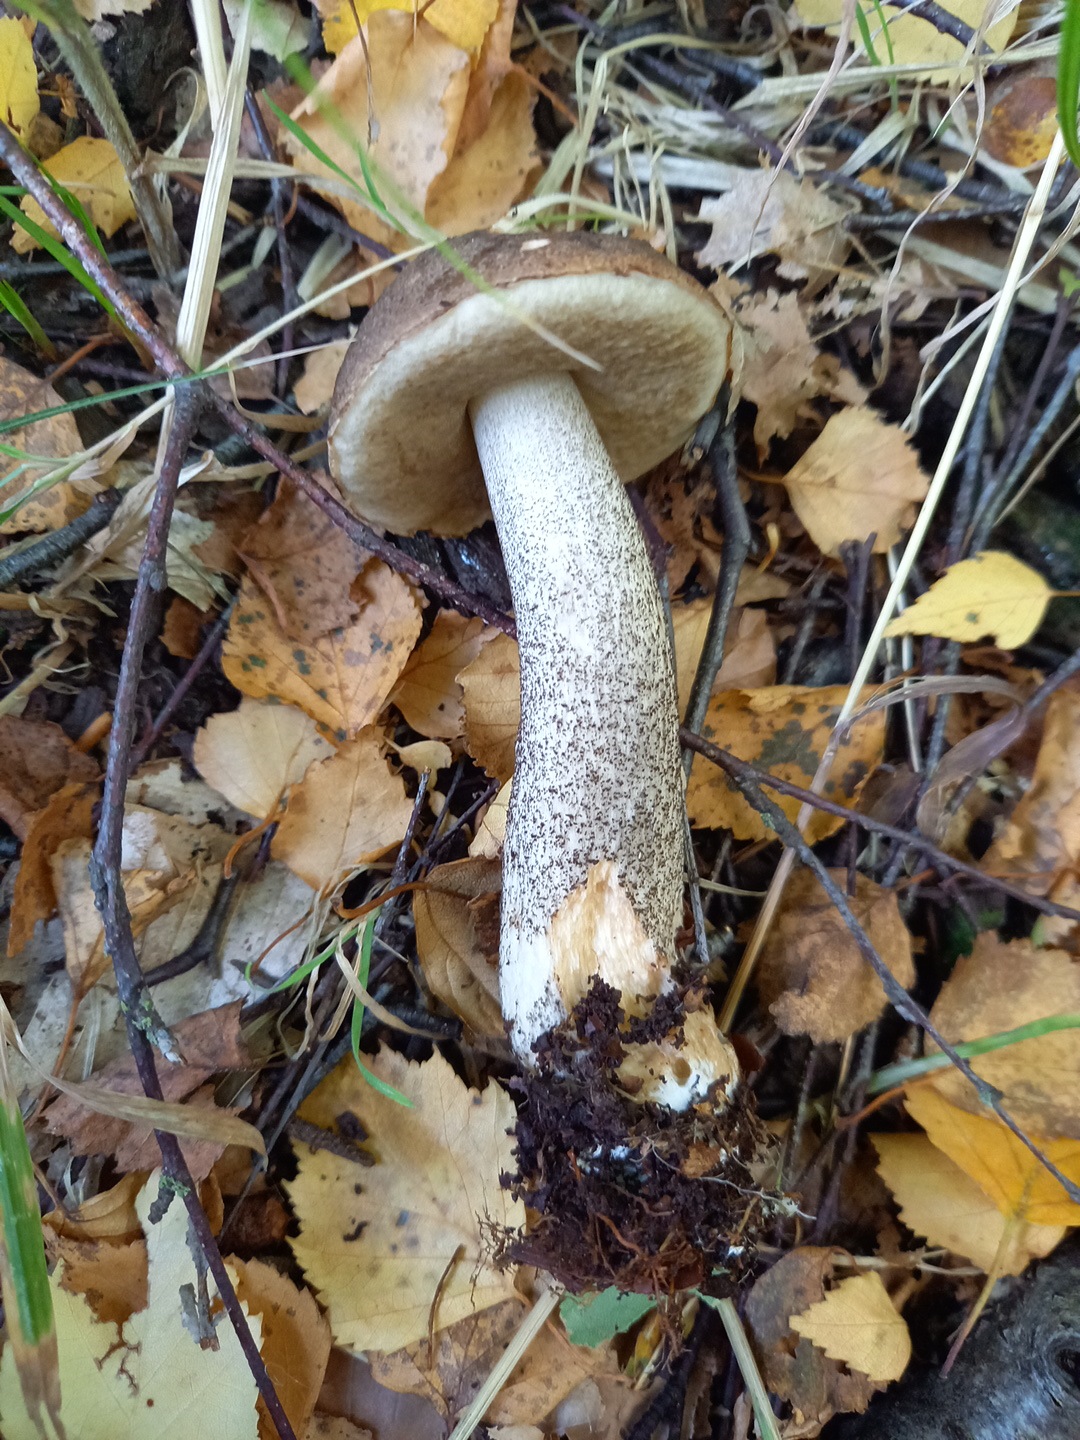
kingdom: Fungi
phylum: Basidiomycota
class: Agaricomycetes
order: Boletales
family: Boletaceae
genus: Leccinum
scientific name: Leccinum scabrum
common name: brun skælrørhat
